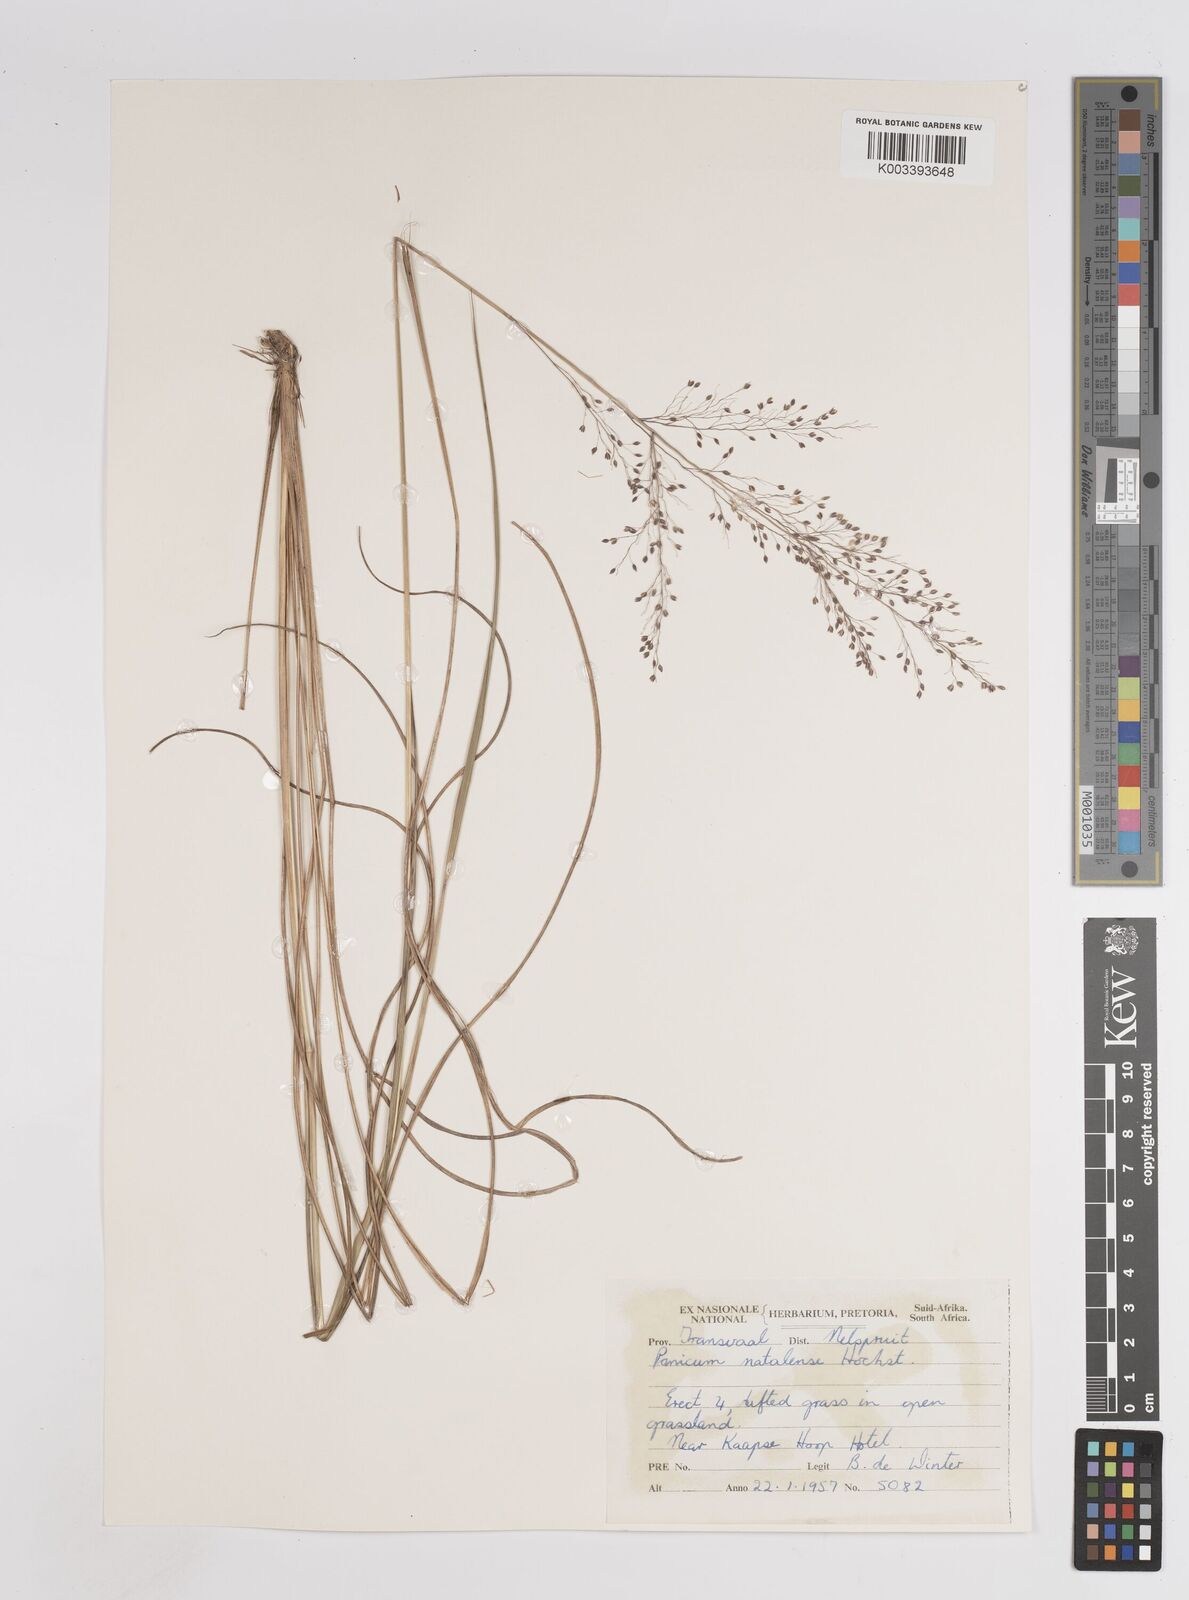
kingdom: Plantae
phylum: Tracheophyta
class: Liliopsida
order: Poales
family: Poaceae
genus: Trichanthecium
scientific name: Trichanthecium natalense
